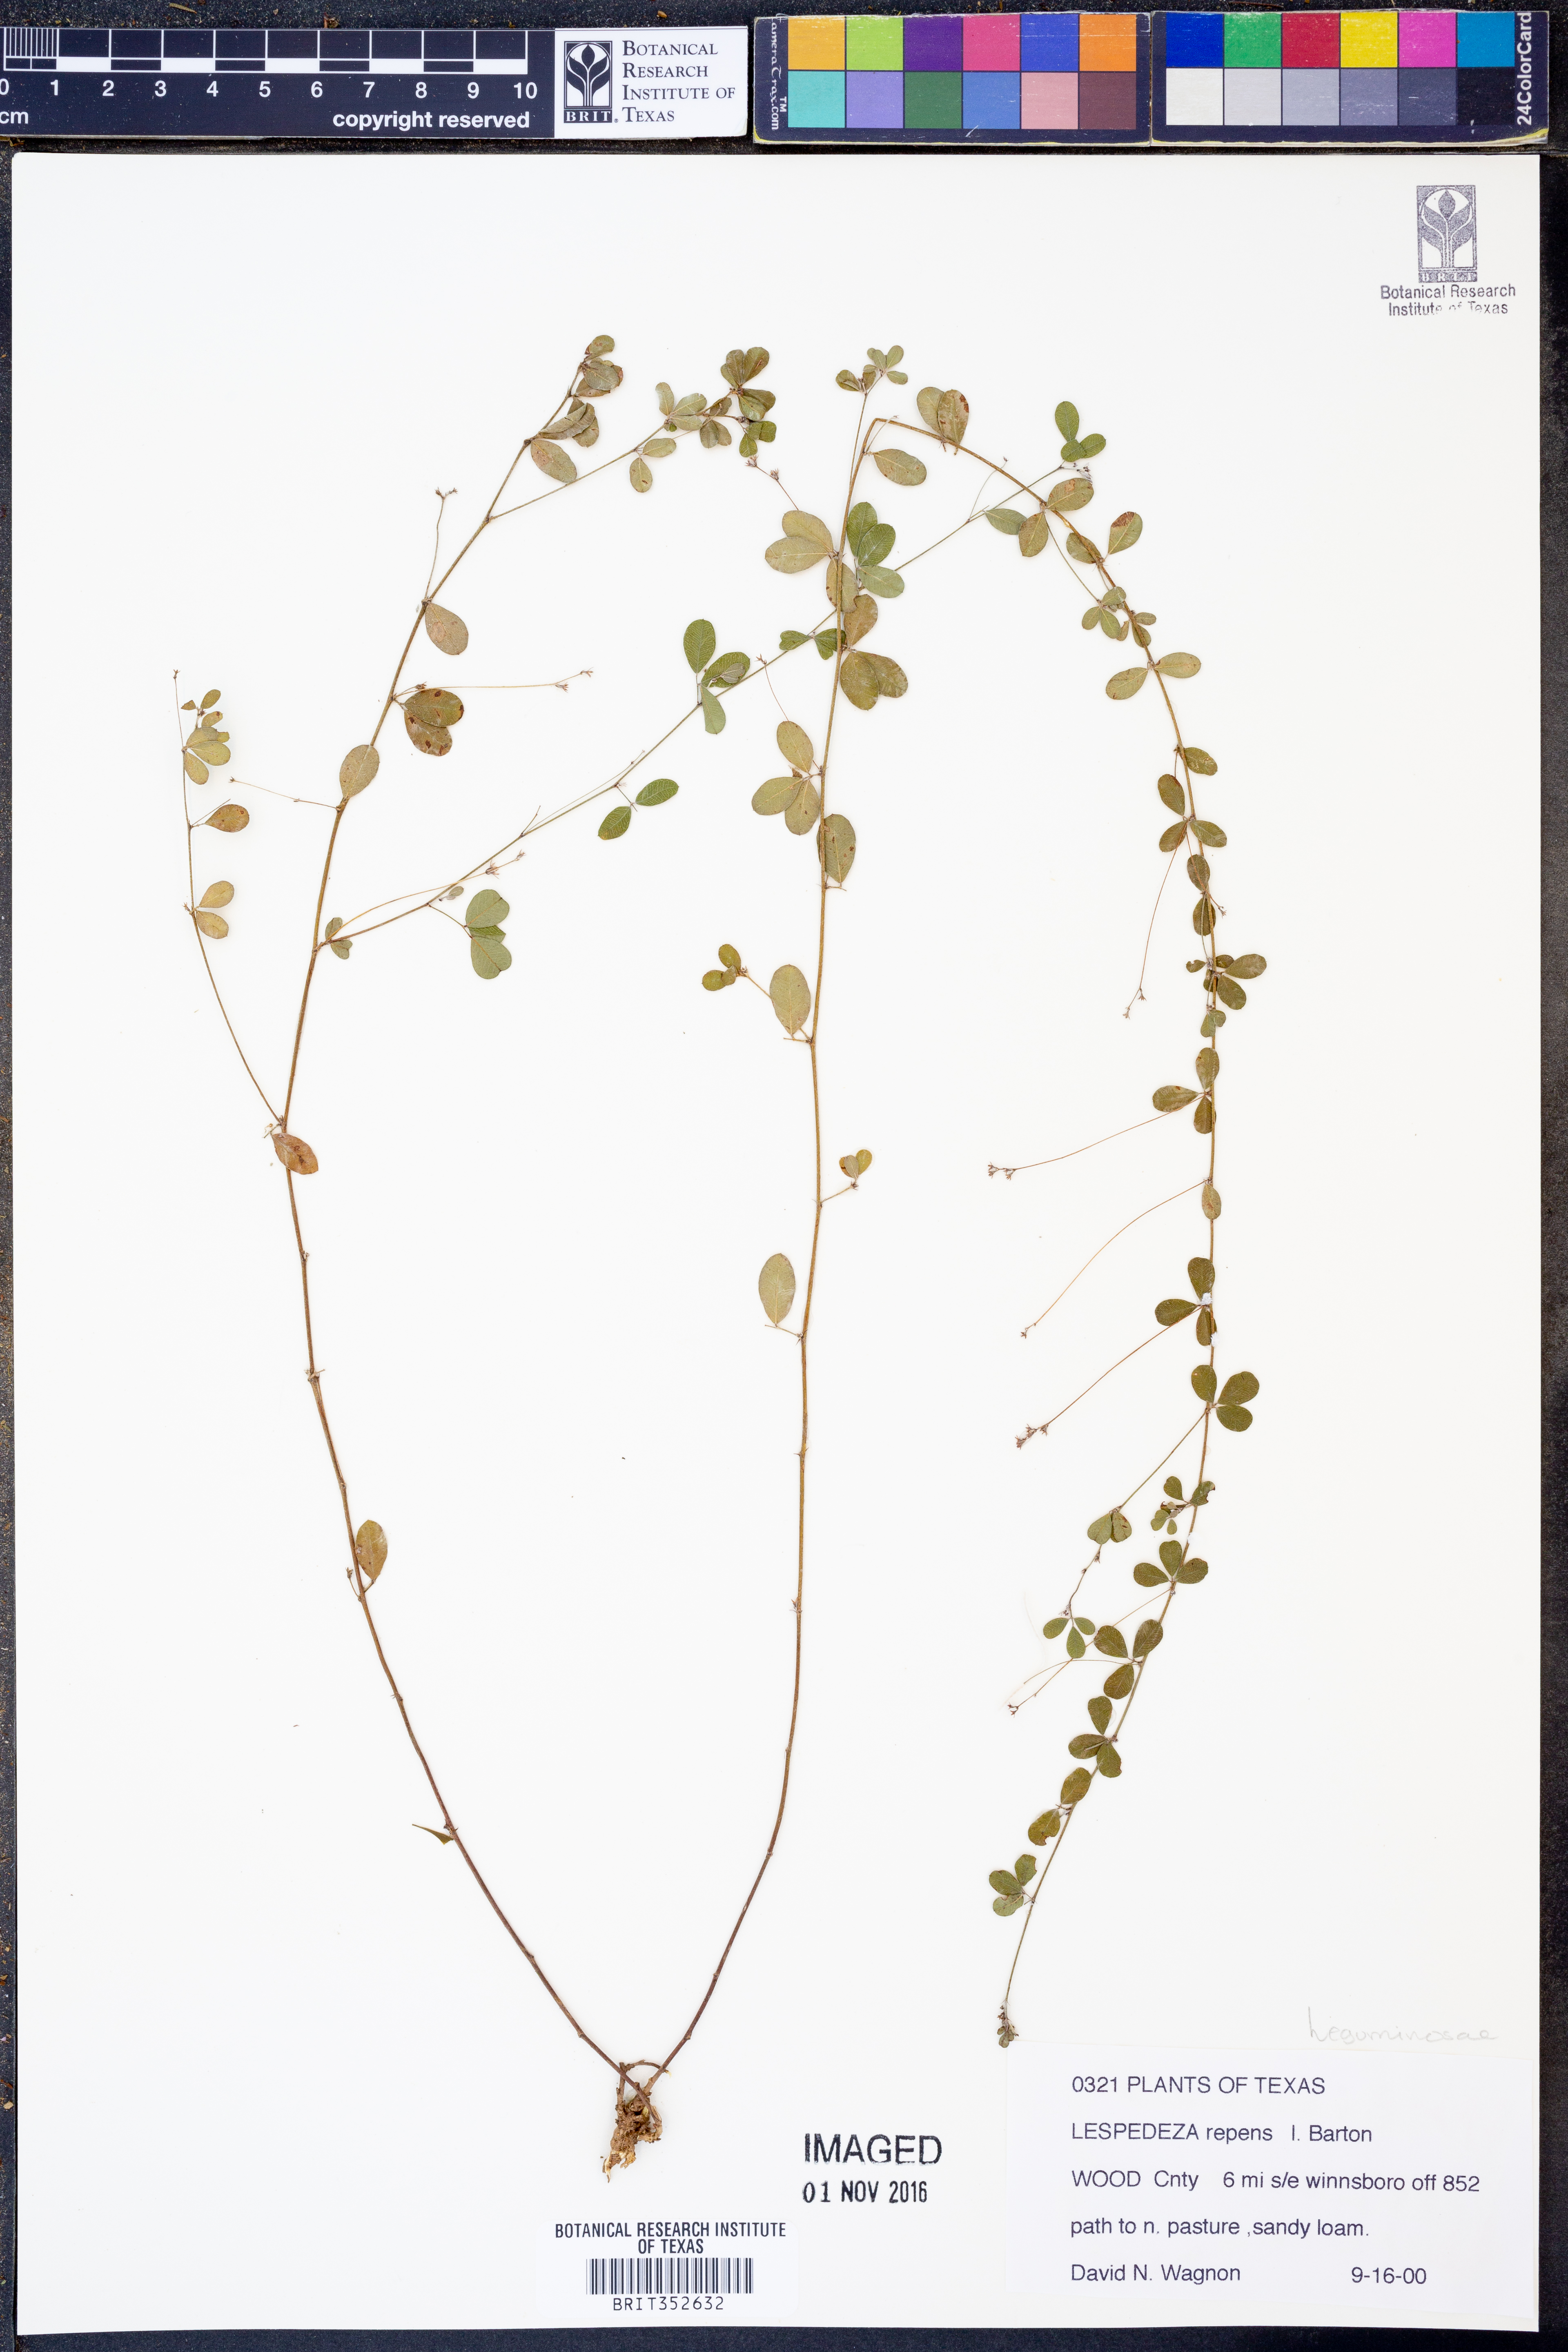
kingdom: Plantae
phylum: Tracheophyta
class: Magnoliopsida
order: Fabales
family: Fabaceae
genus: Lespedeza
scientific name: Lespedeza repens
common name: Creeping bush-clover
